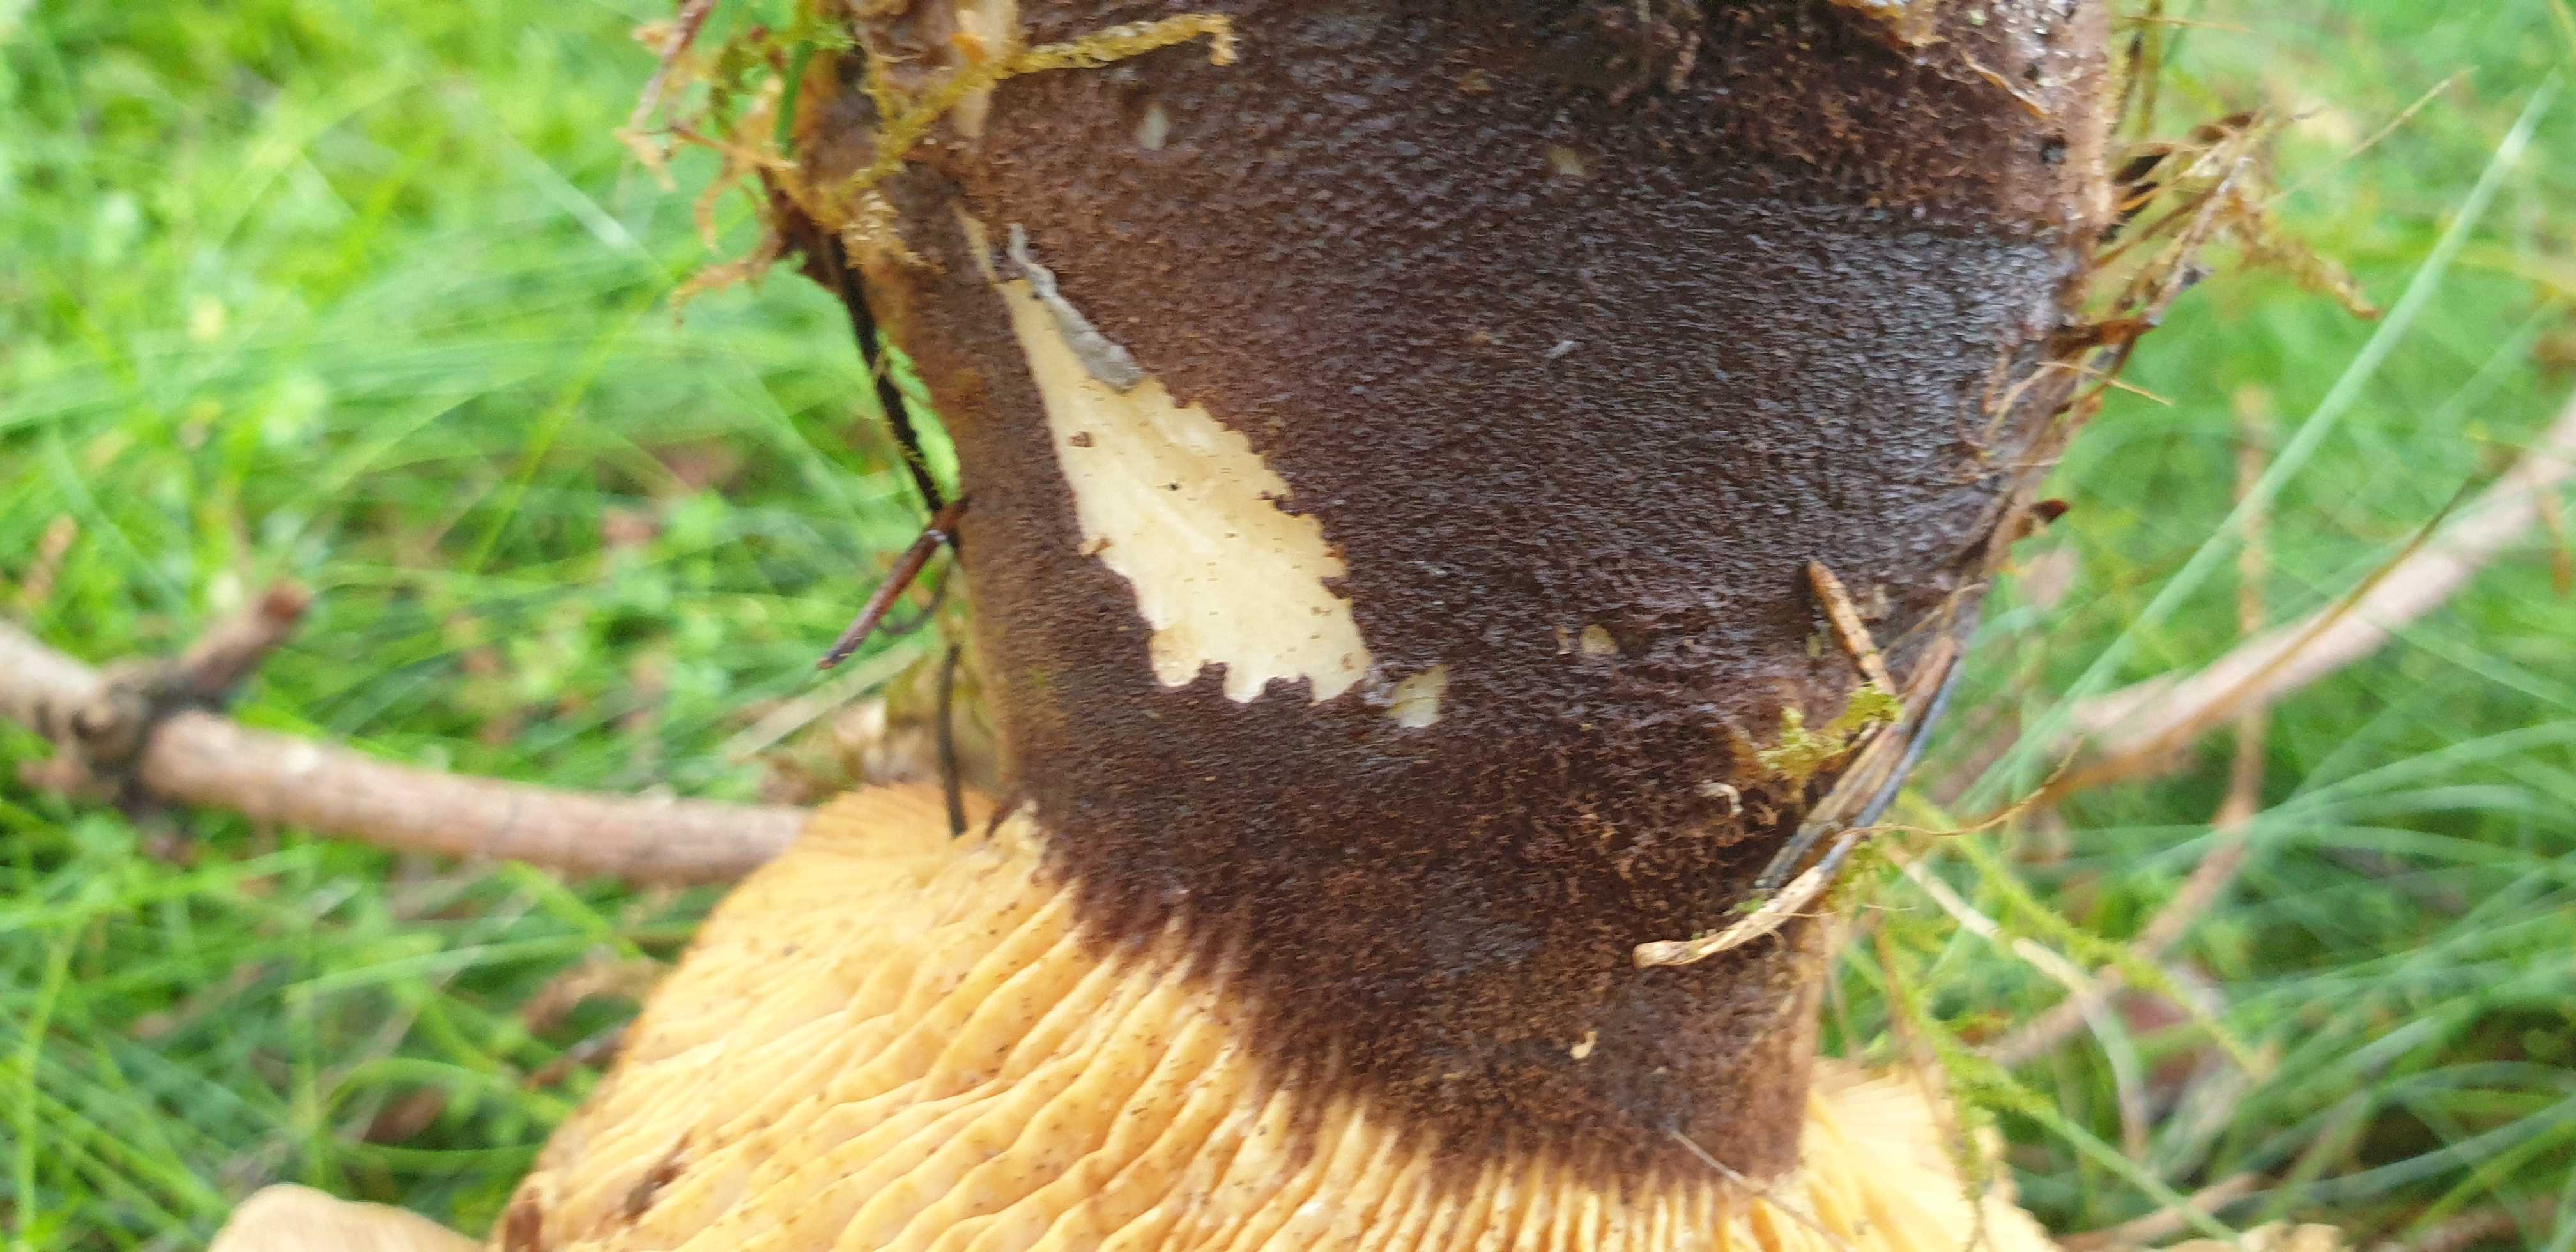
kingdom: Fungi
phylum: Basidiomycota
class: Agaricomycetes
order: Boletales
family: Tapinellaceae
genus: Tapinella
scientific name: Tapinella atrotomentosa
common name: sortfiltet viftesvamp
